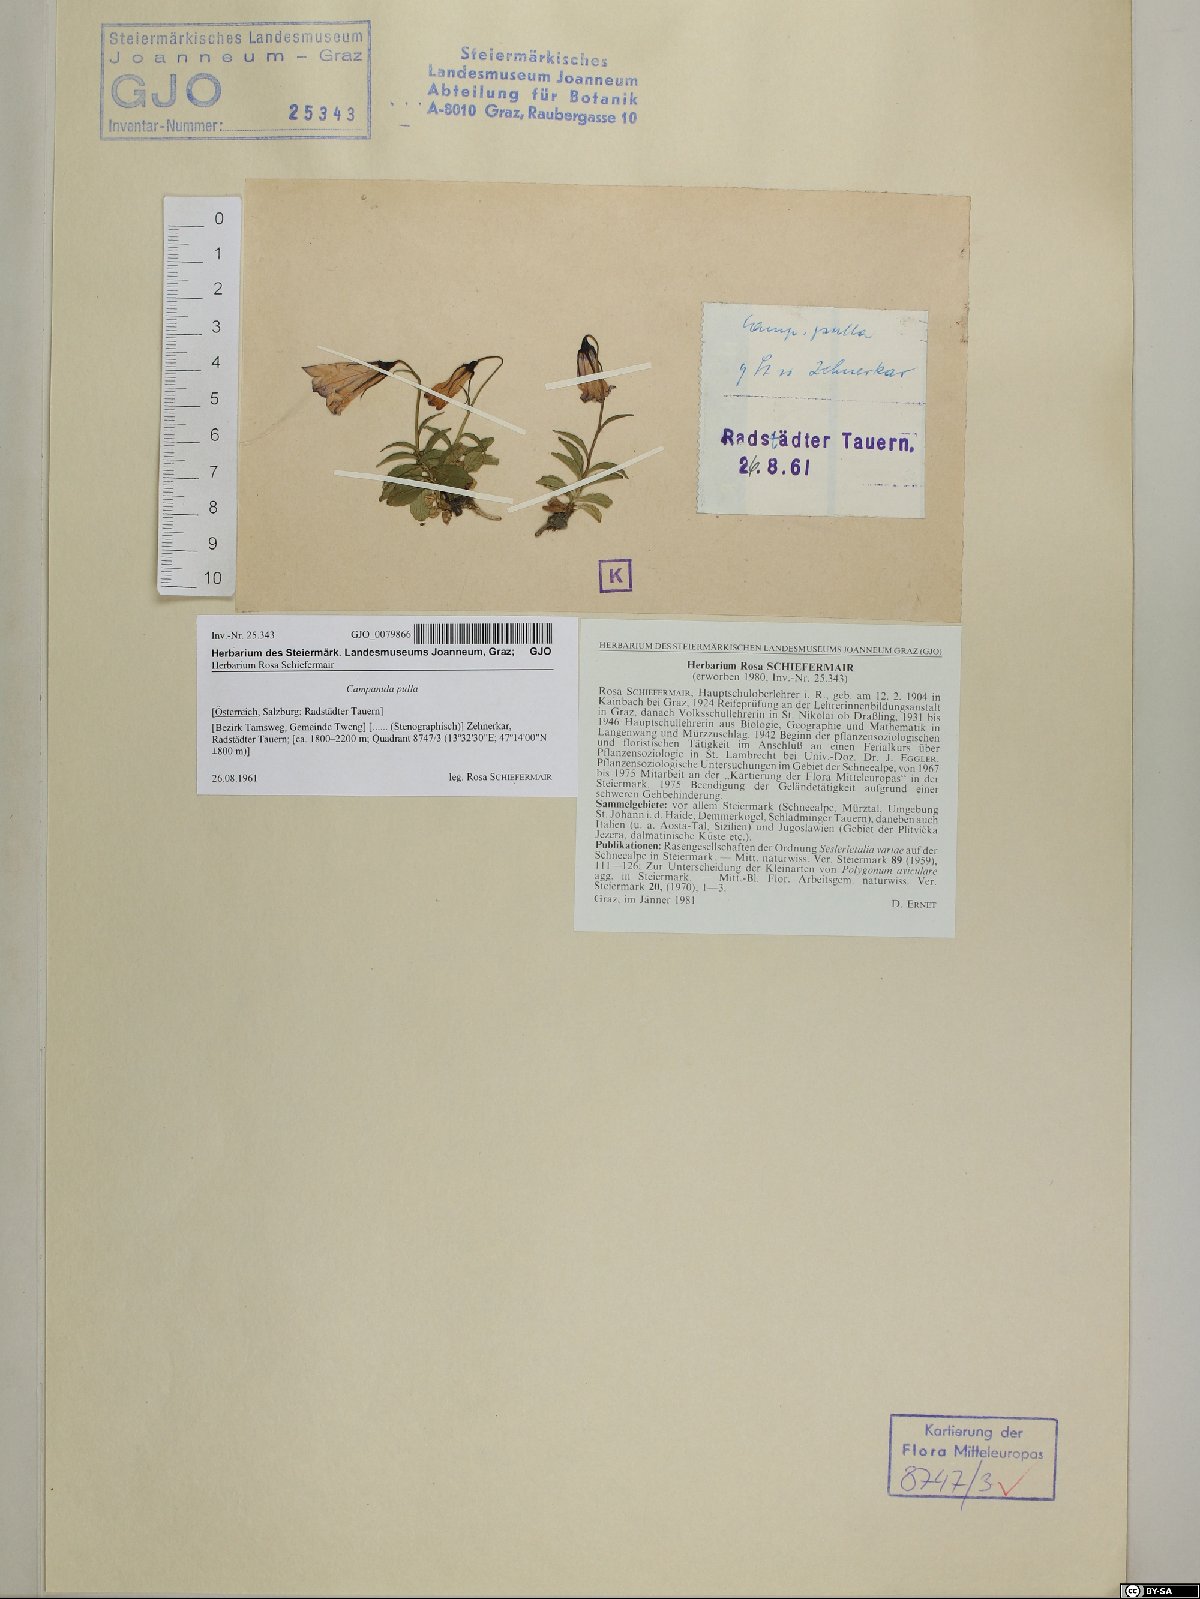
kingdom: Plantae
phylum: Tracheophyta
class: Magnoliopsida
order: Asterales
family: Campanulaceae
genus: Campanula
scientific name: Campanula pulla
